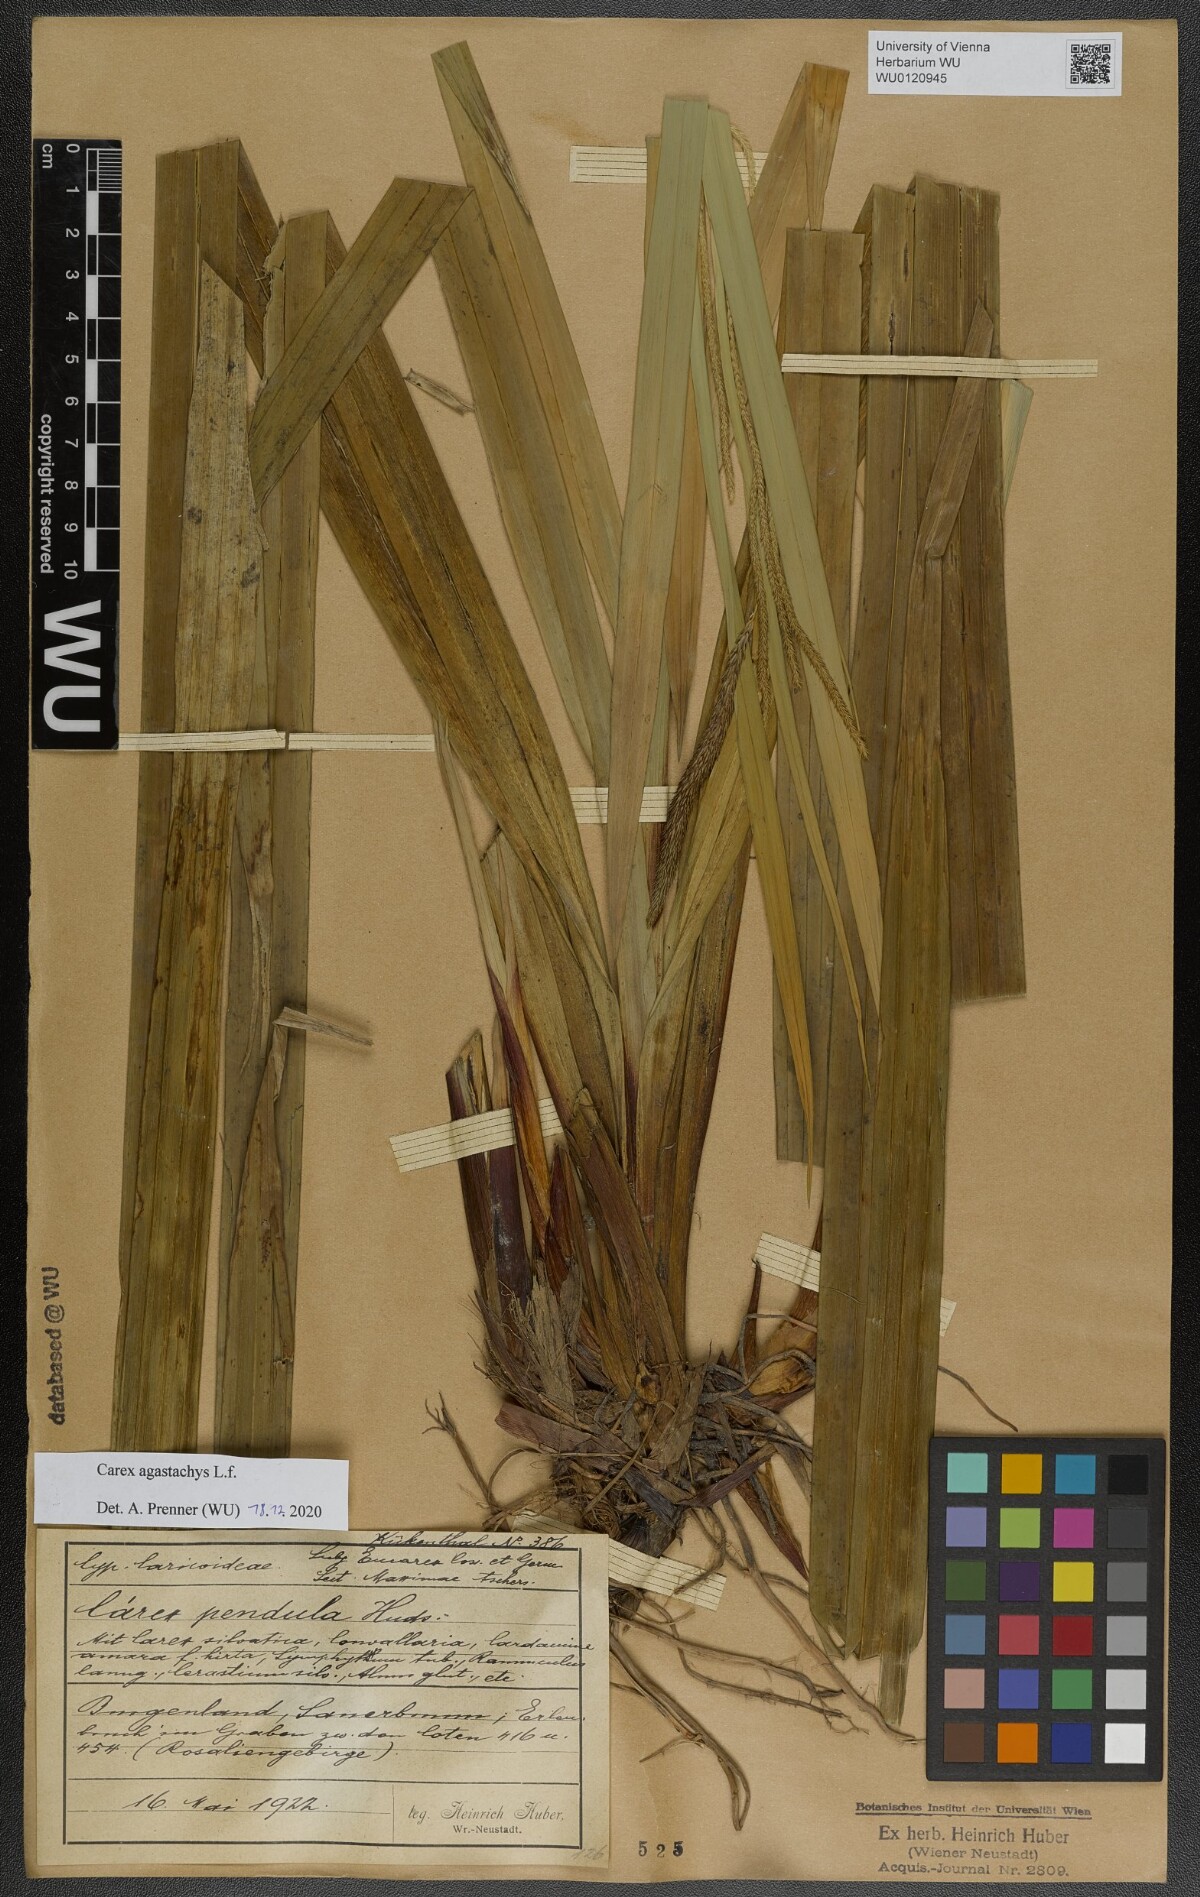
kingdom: Plantae
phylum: Tracheophyta
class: Liliopsida
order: Poales
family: Cyperaceae
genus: Carex
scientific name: Carex agastachys
